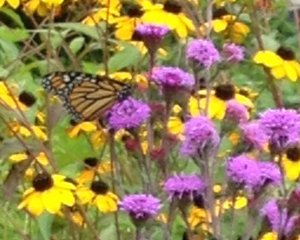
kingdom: Animalia
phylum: Arthropoda
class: Insecta
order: Lepidoptera
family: Nymphalidae
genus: Danaus
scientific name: Danaus plexippus
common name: Monarch
